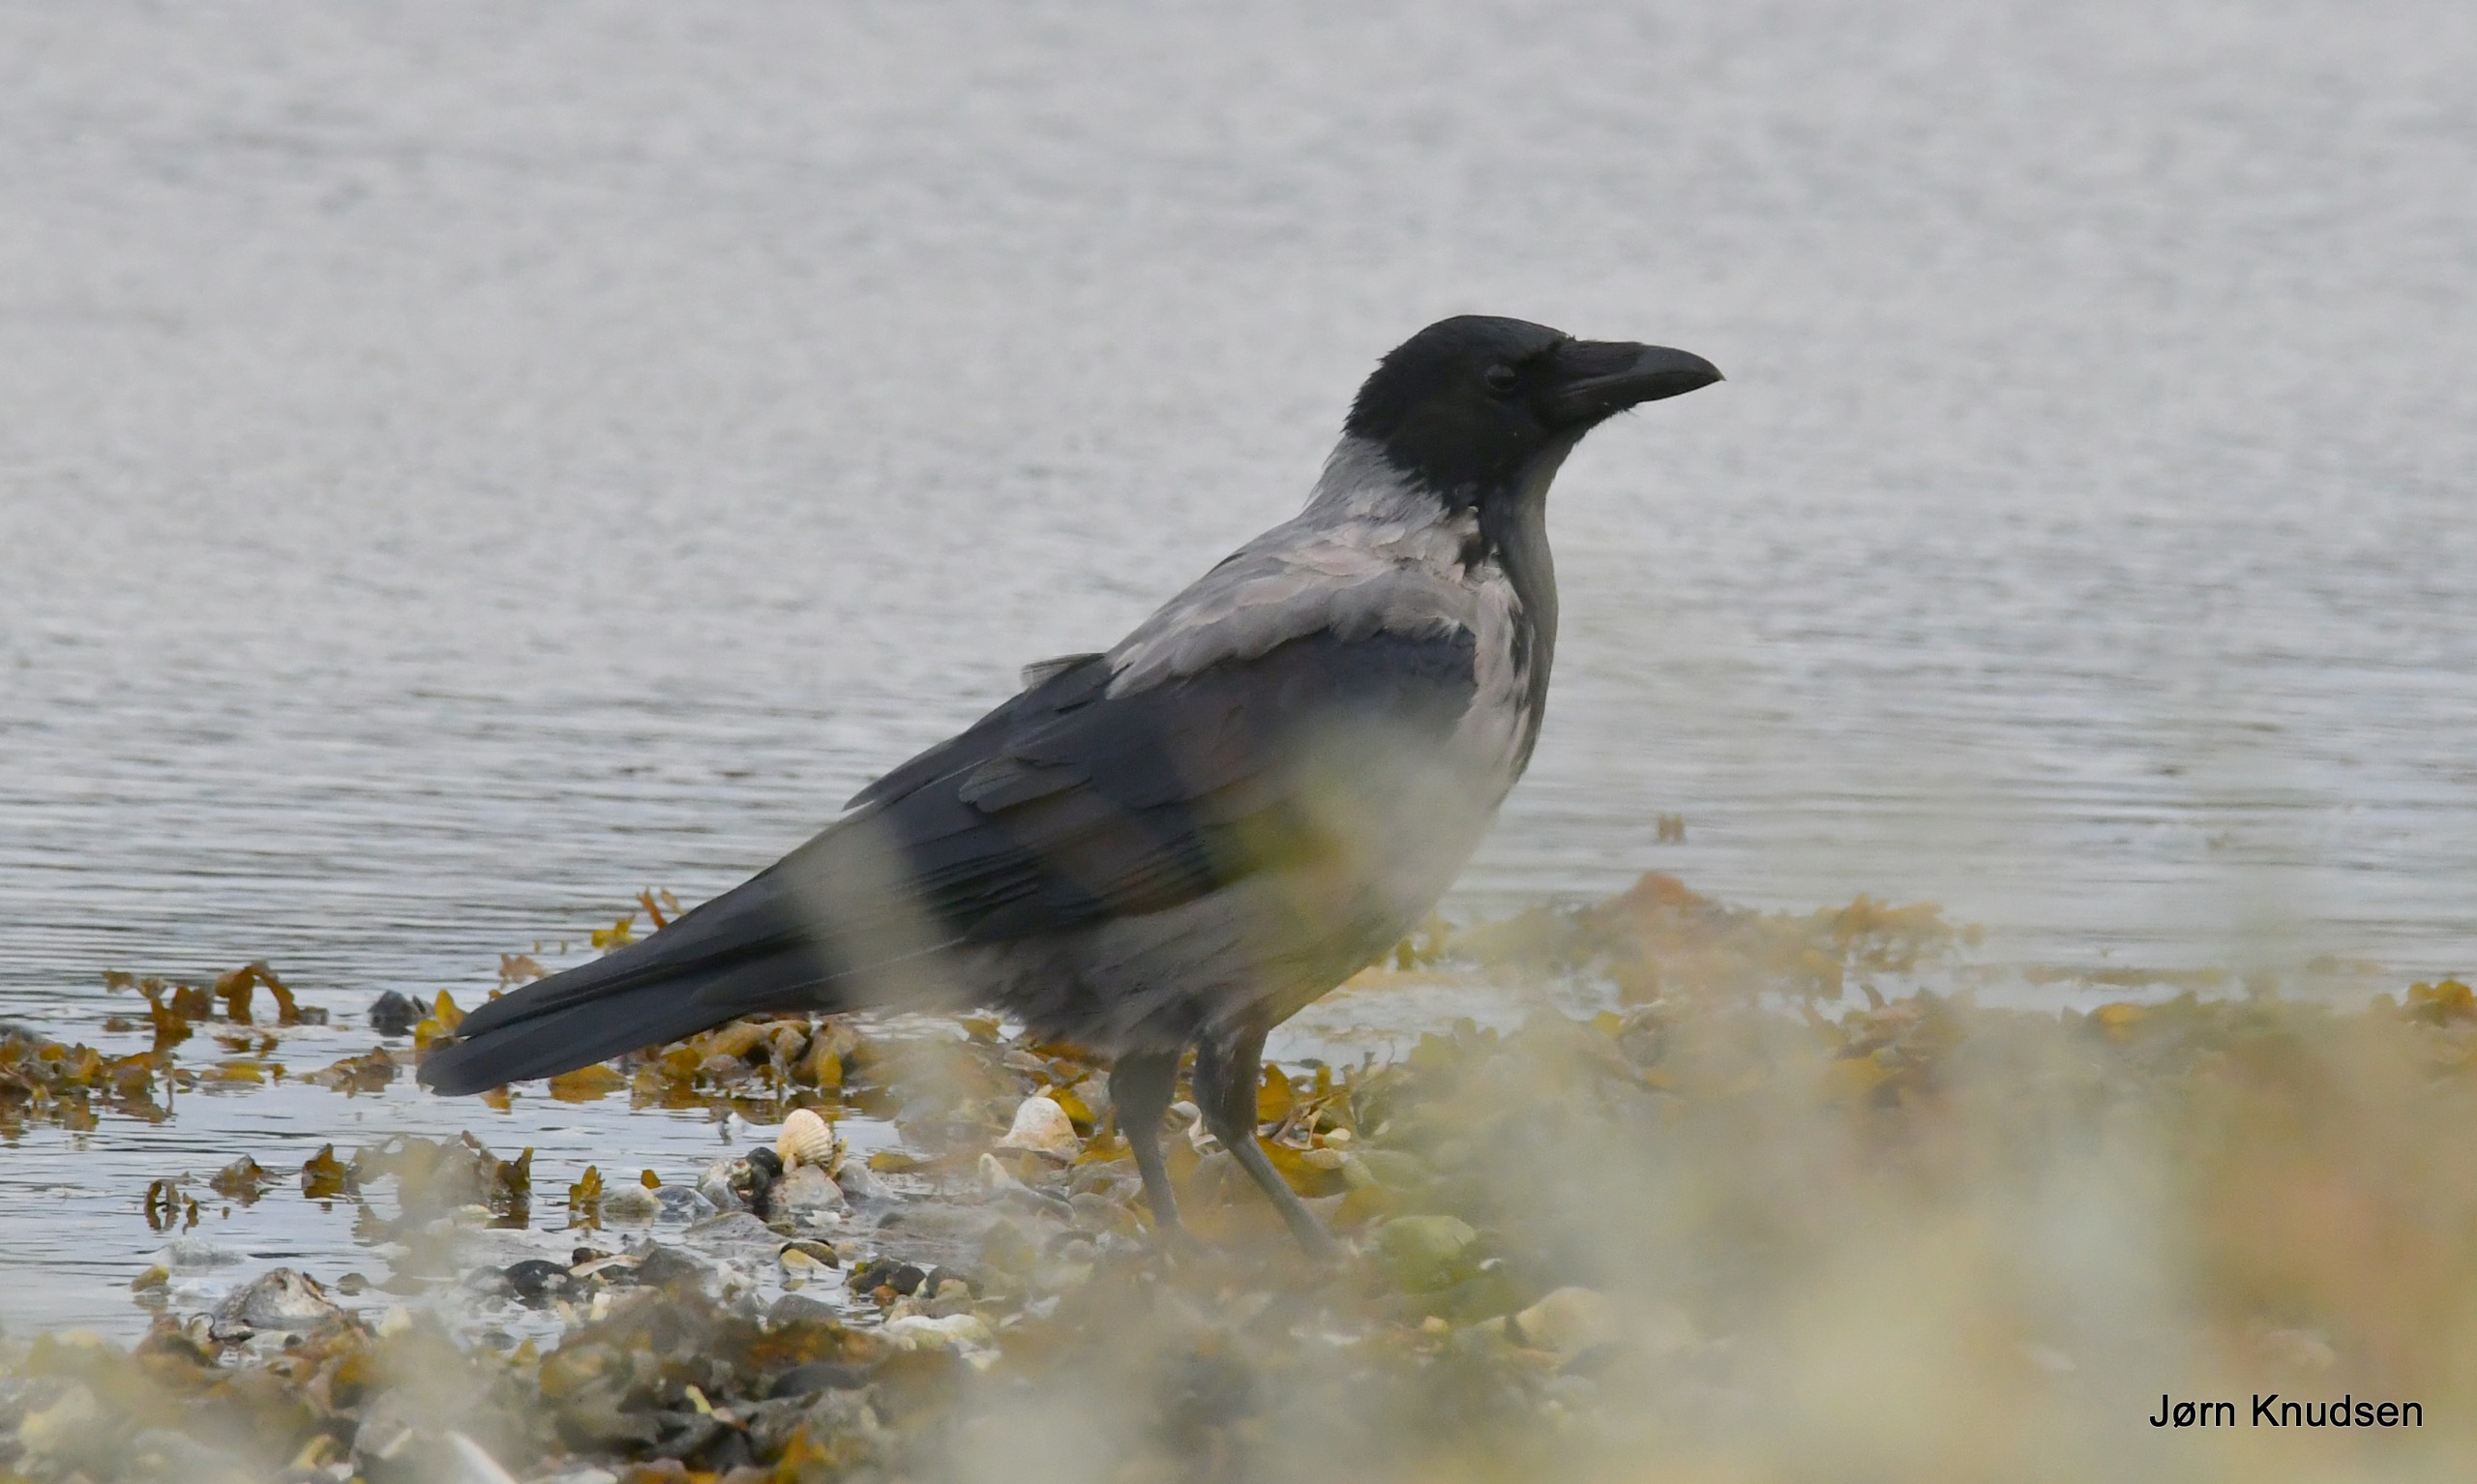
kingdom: Animalia
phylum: Chordata
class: Aves
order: Passeriformes
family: Corvidae
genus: Corvus
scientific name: Corvus cornix
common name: Gråkrage
